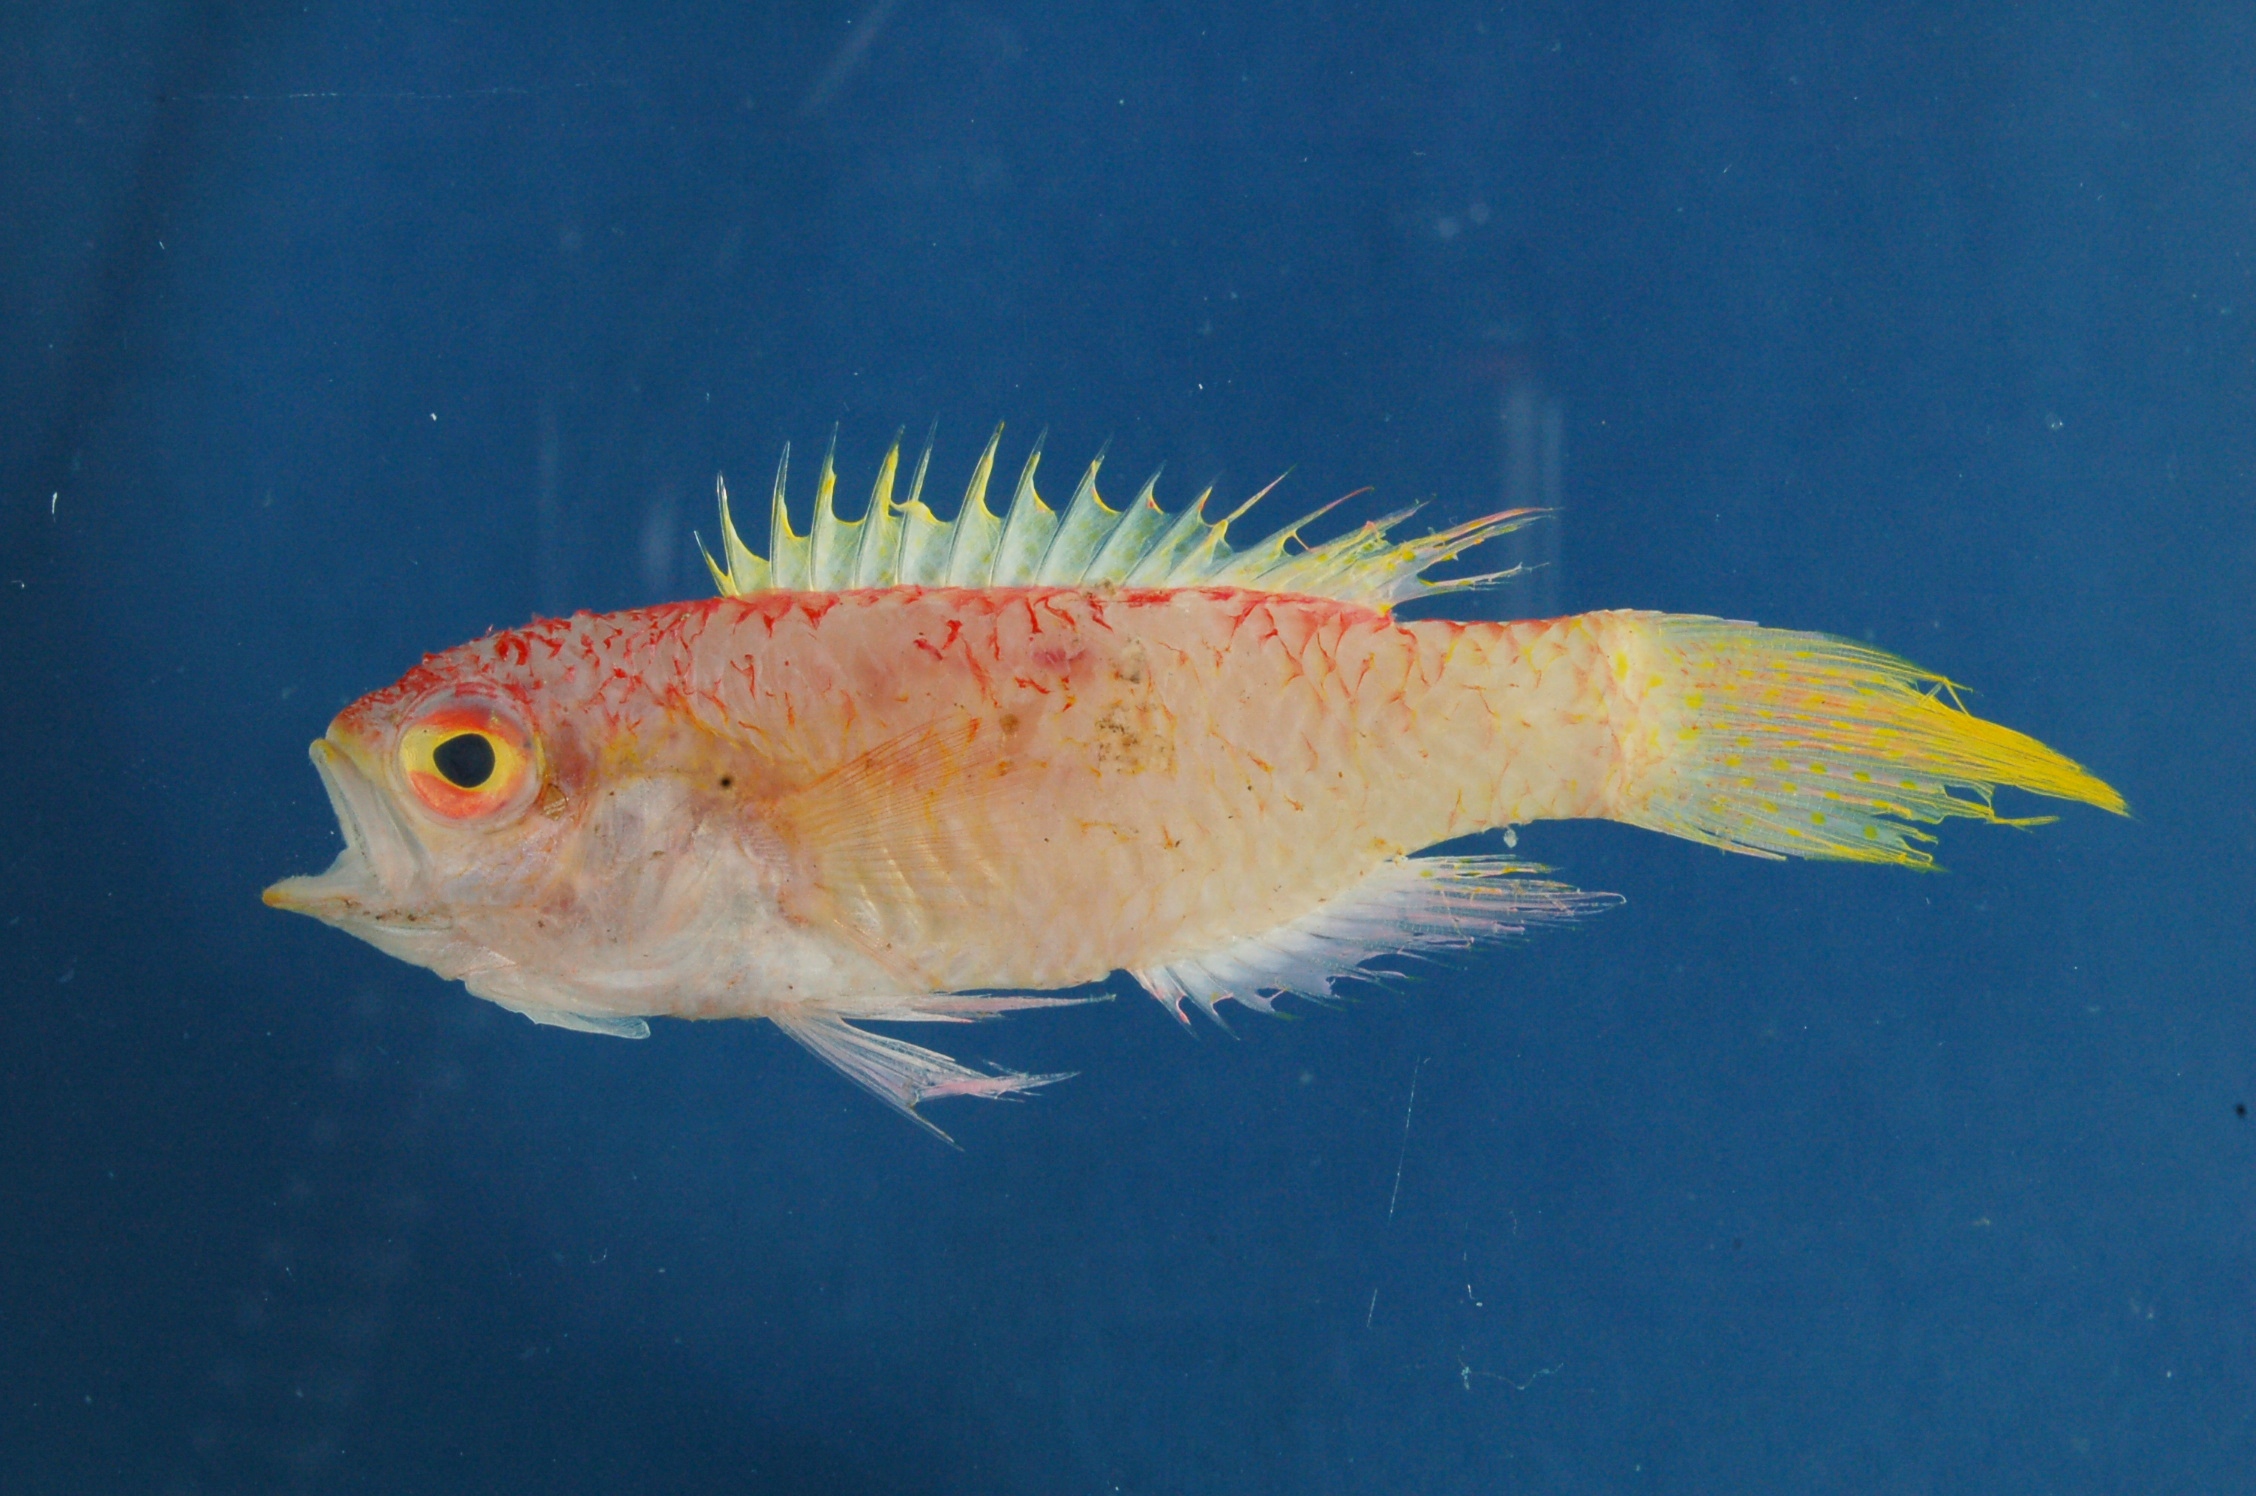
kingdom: Animalia
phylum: Chordata
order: Perciformes
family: Callanthiidae
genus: Grammatonotus
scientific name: Grammatonotus lanceolatus
